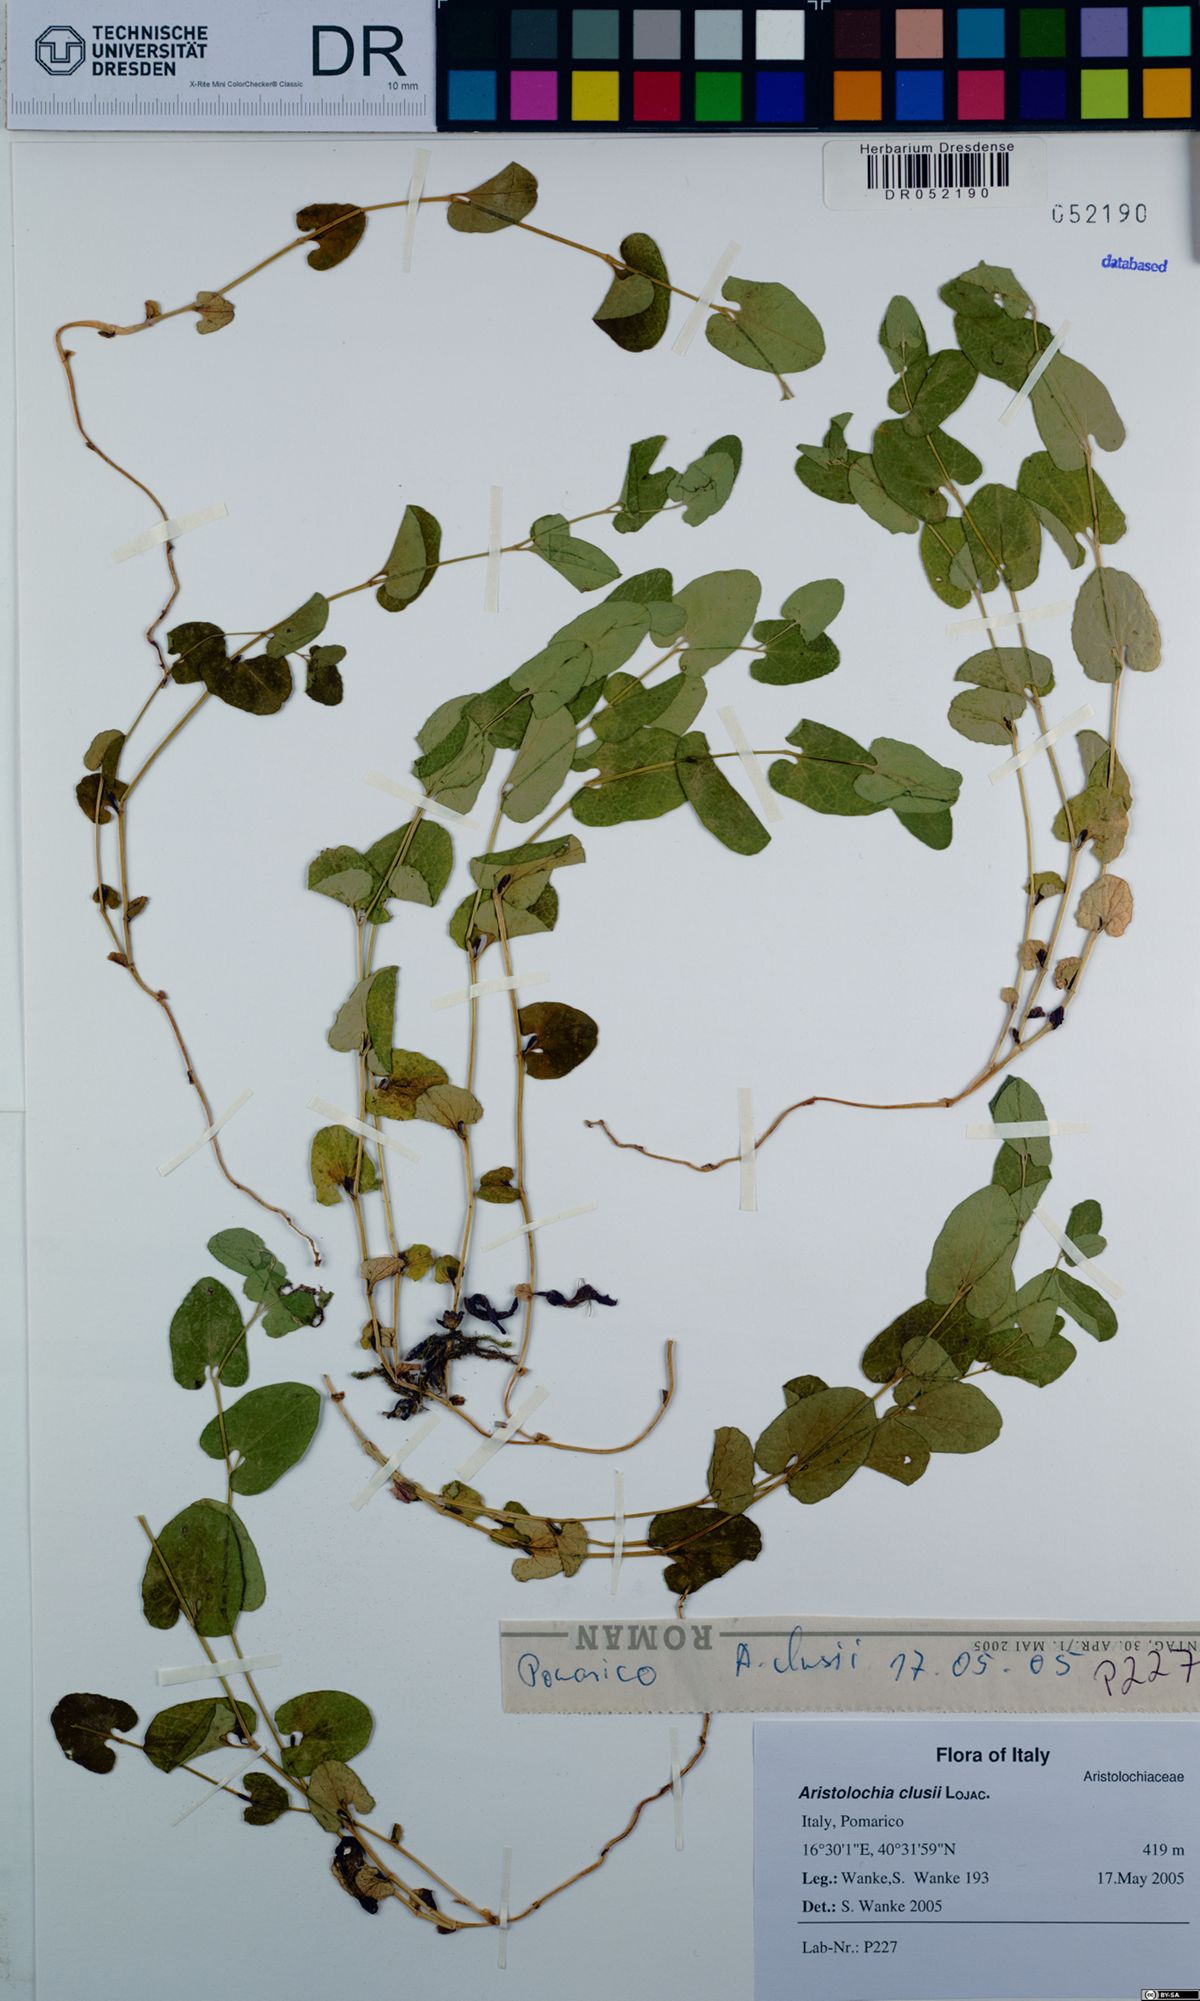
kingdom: Plantae
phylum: Tracheophyta
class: Magnoliopsida
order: Piperales
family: Aristolochiaceae
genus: Aristolochia
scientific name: Aristolochia clusii
